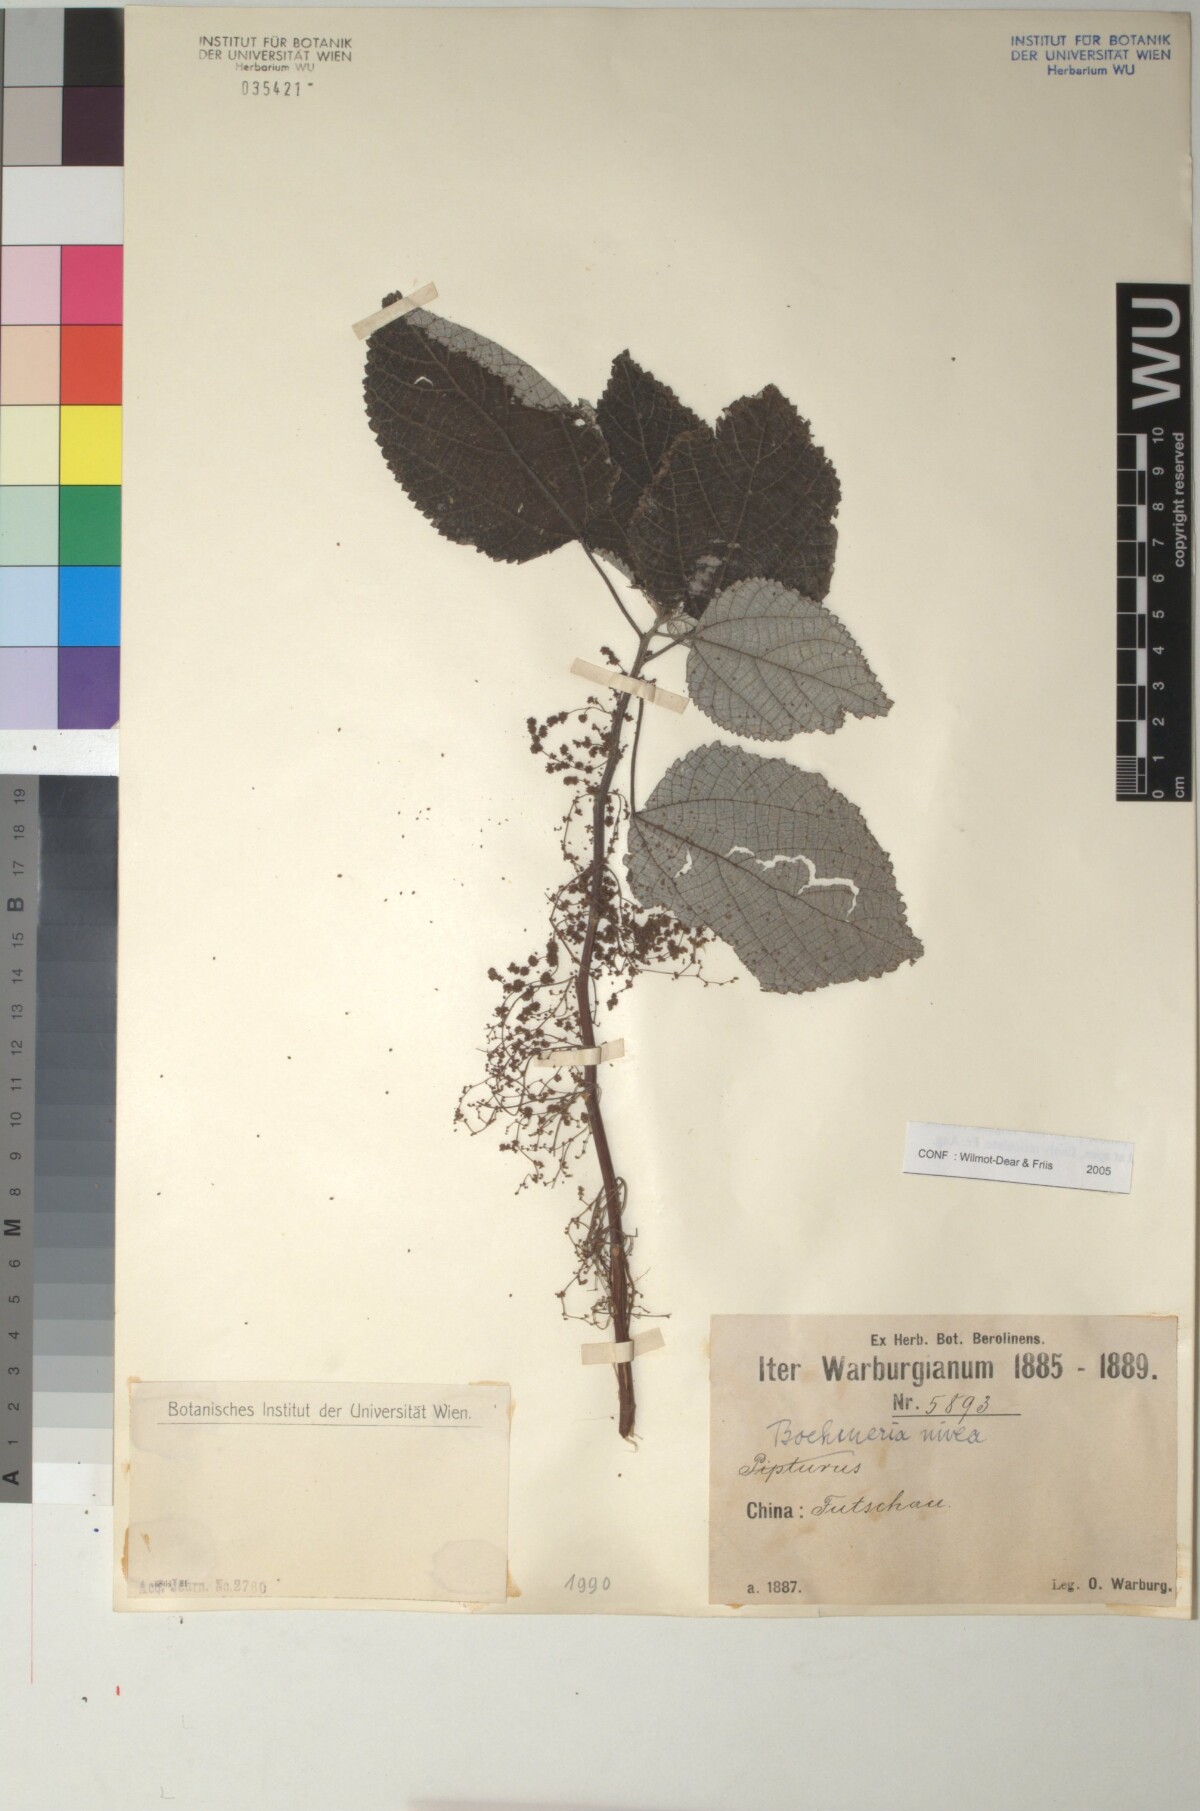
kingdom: Plantae
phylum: Tracheophyta
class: Magnoliopsida
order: Rosales
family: Urticaceae
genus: Boehmeria
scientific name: Boehmeria nivea
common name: Ramie chinese grass
